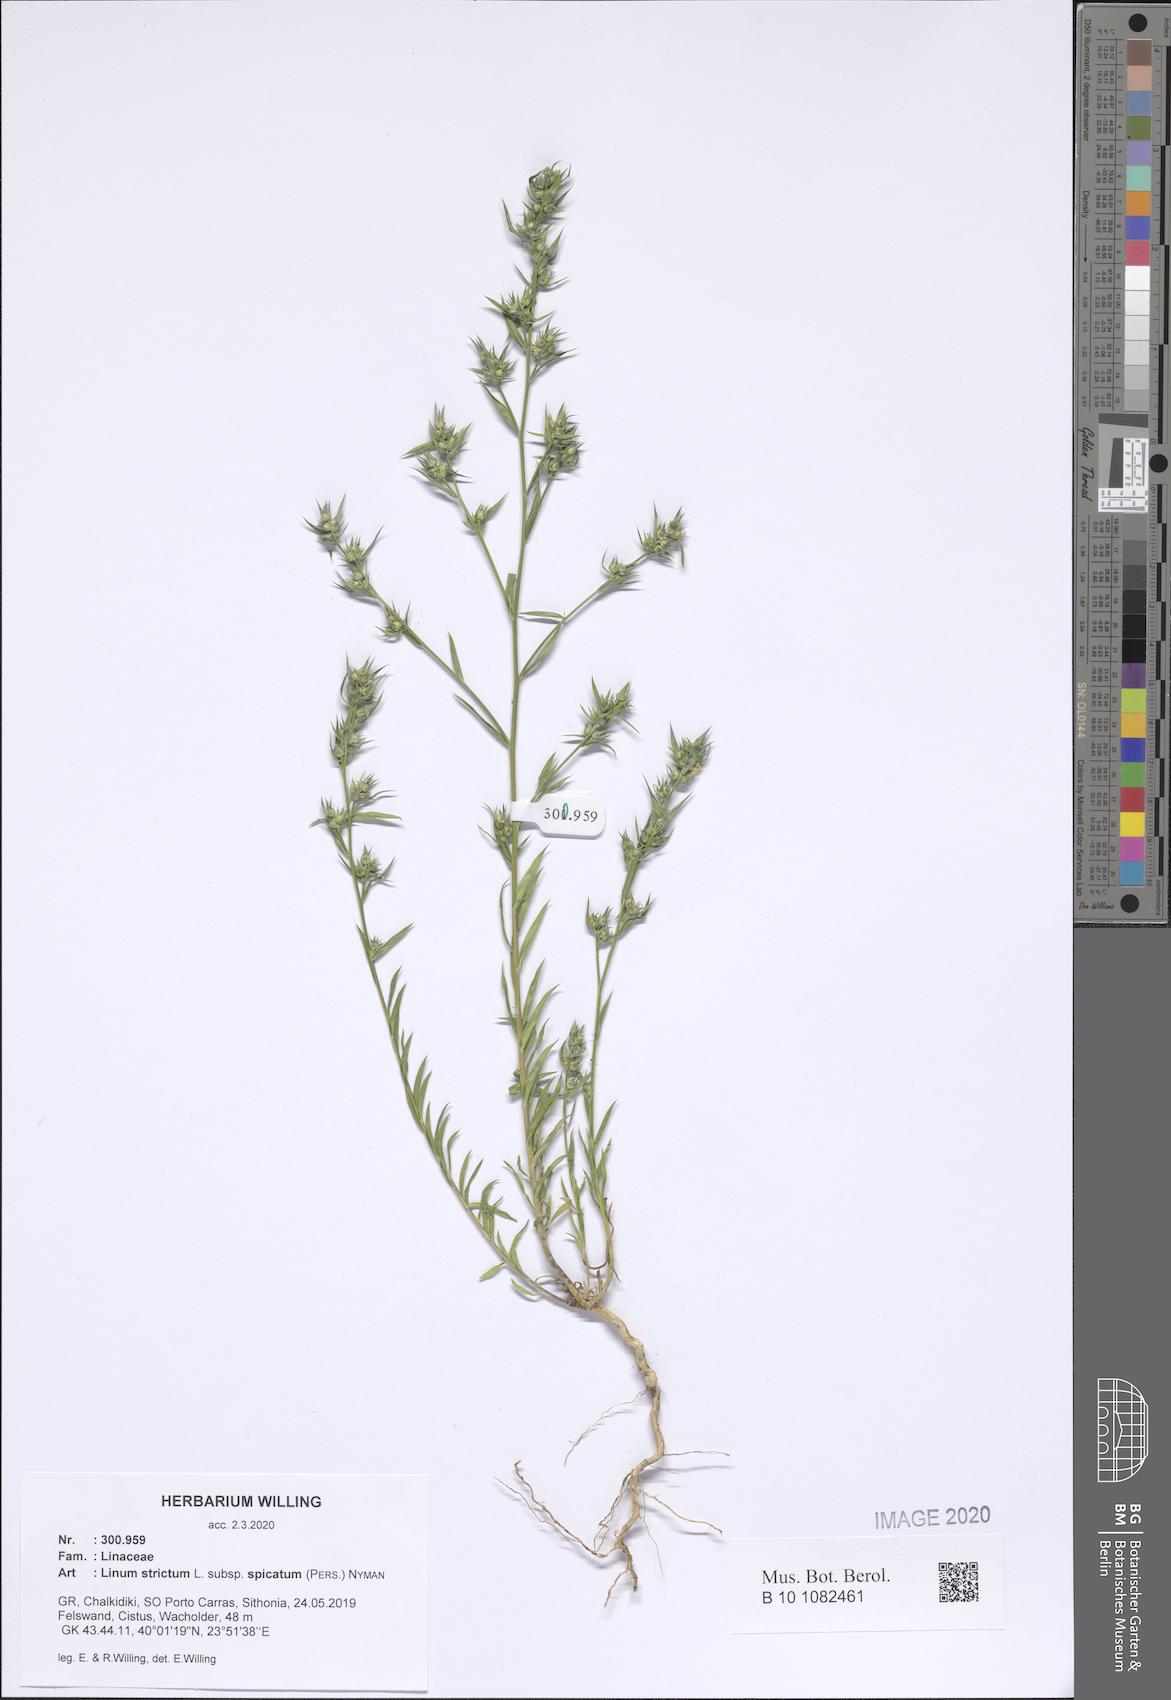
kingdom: Plantae
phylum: Tracheophyta
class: Magnoliopsida
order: Malpighiales
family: Linaceae
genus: Linum
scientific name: Linum strictum
